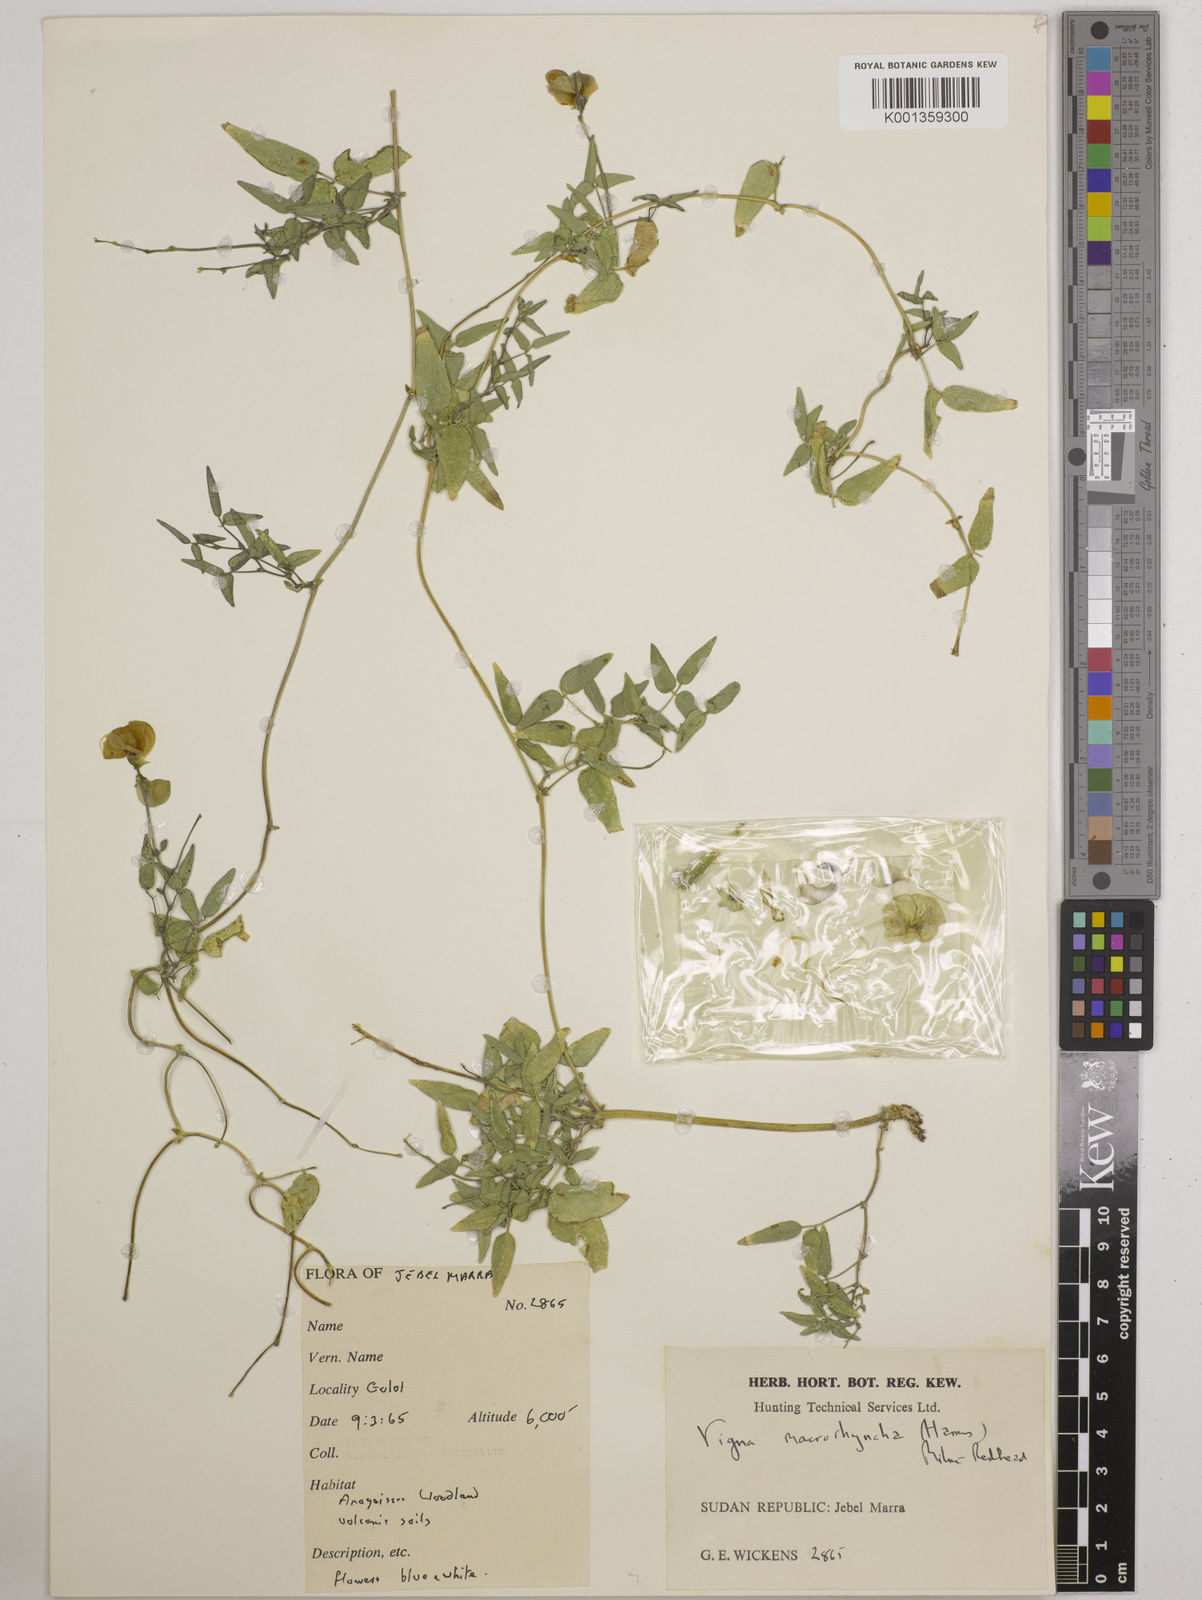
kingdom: Plantae
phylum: Tracheophyta
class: Magnoliopsida
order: Fabales
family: Fabaceae
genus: Wajira
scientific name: Wajira grahamiana
